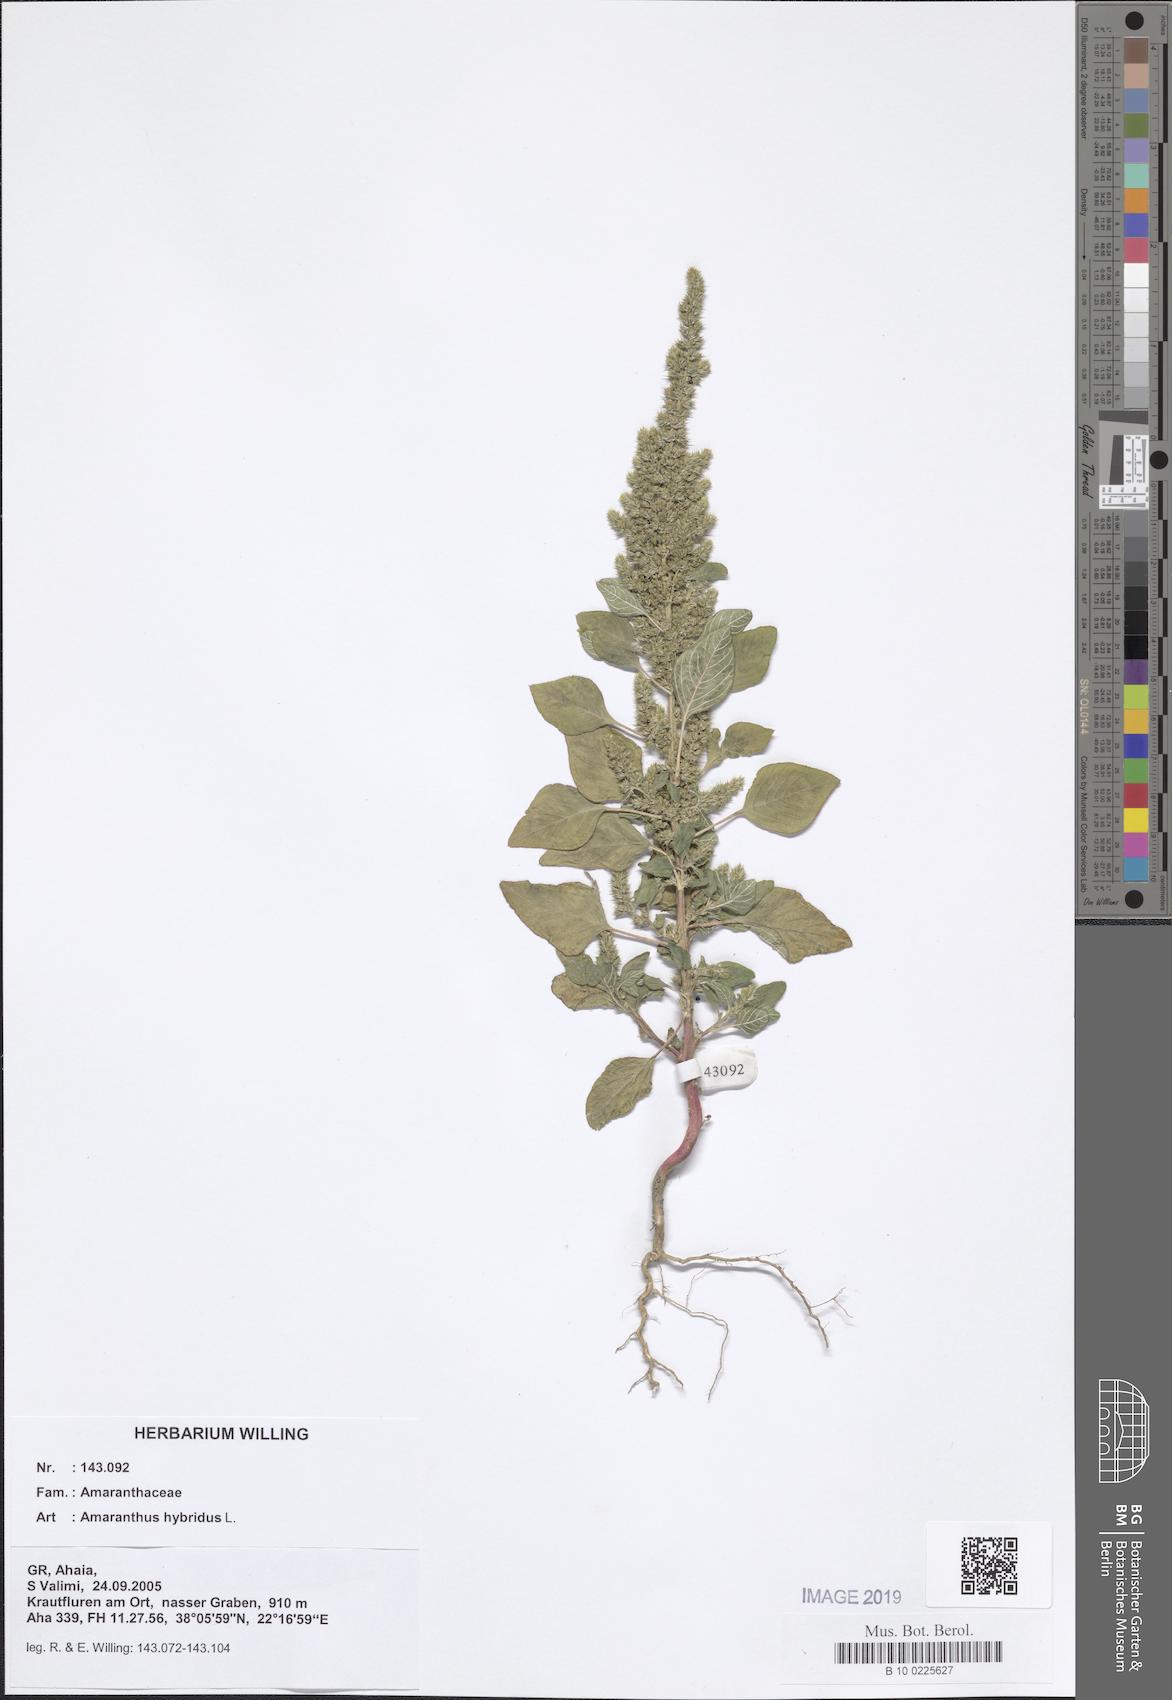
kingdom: Plantae
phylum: Tracheophyta
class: Magnoliopsida
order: Caryophyllales
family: Amaranthaceae
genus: Amaranthus
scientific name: Amaranthus hybridus
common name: Green amaranth
